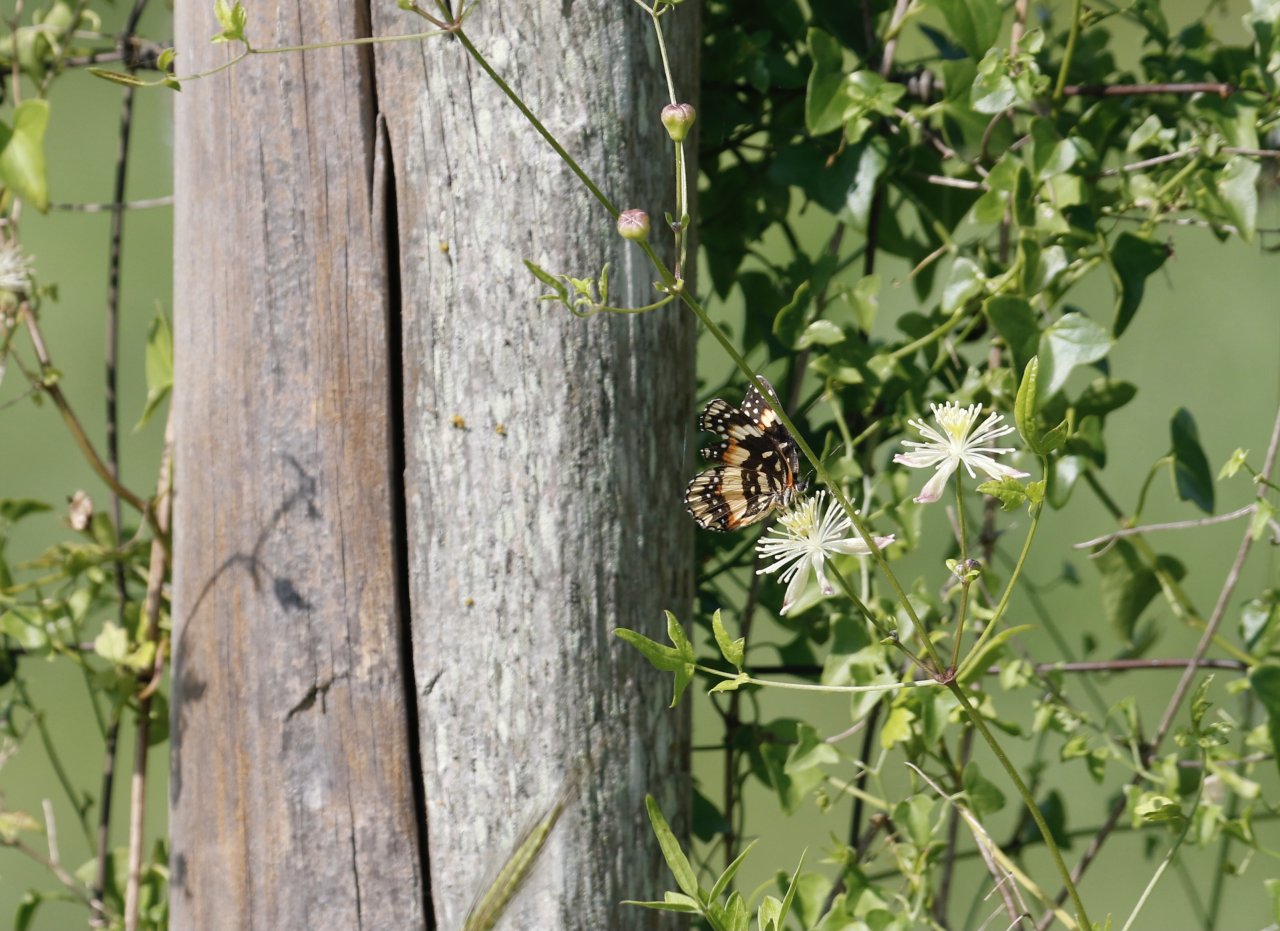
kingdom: Animalia
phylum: Arthropoda
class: Insecta
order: Lepidoptera
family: Nymphalidae
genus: Chlosyne
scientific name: Chlosyne lacinia
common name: Bordered Patch
